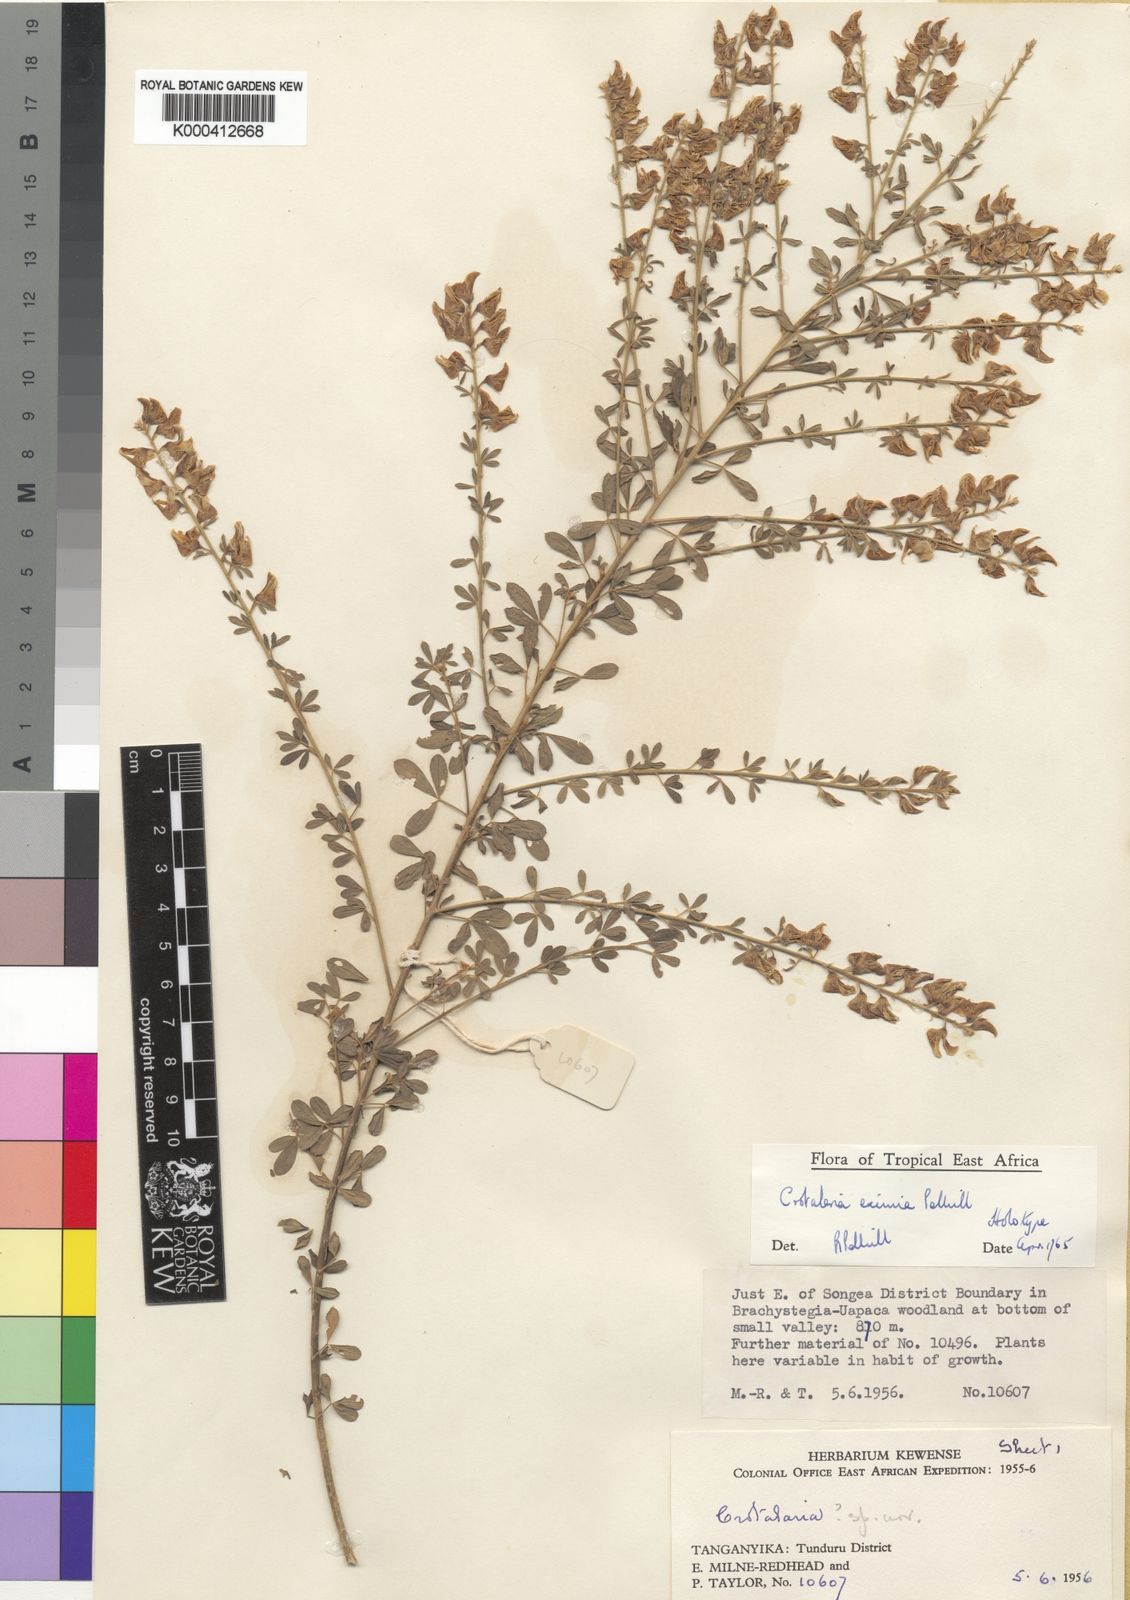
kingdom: Plantae
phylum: Tracheophyta
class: Magnoliopsida
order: Fabales
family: Fabaceae
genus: Crotalaria
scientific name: Crotalaria eximia
